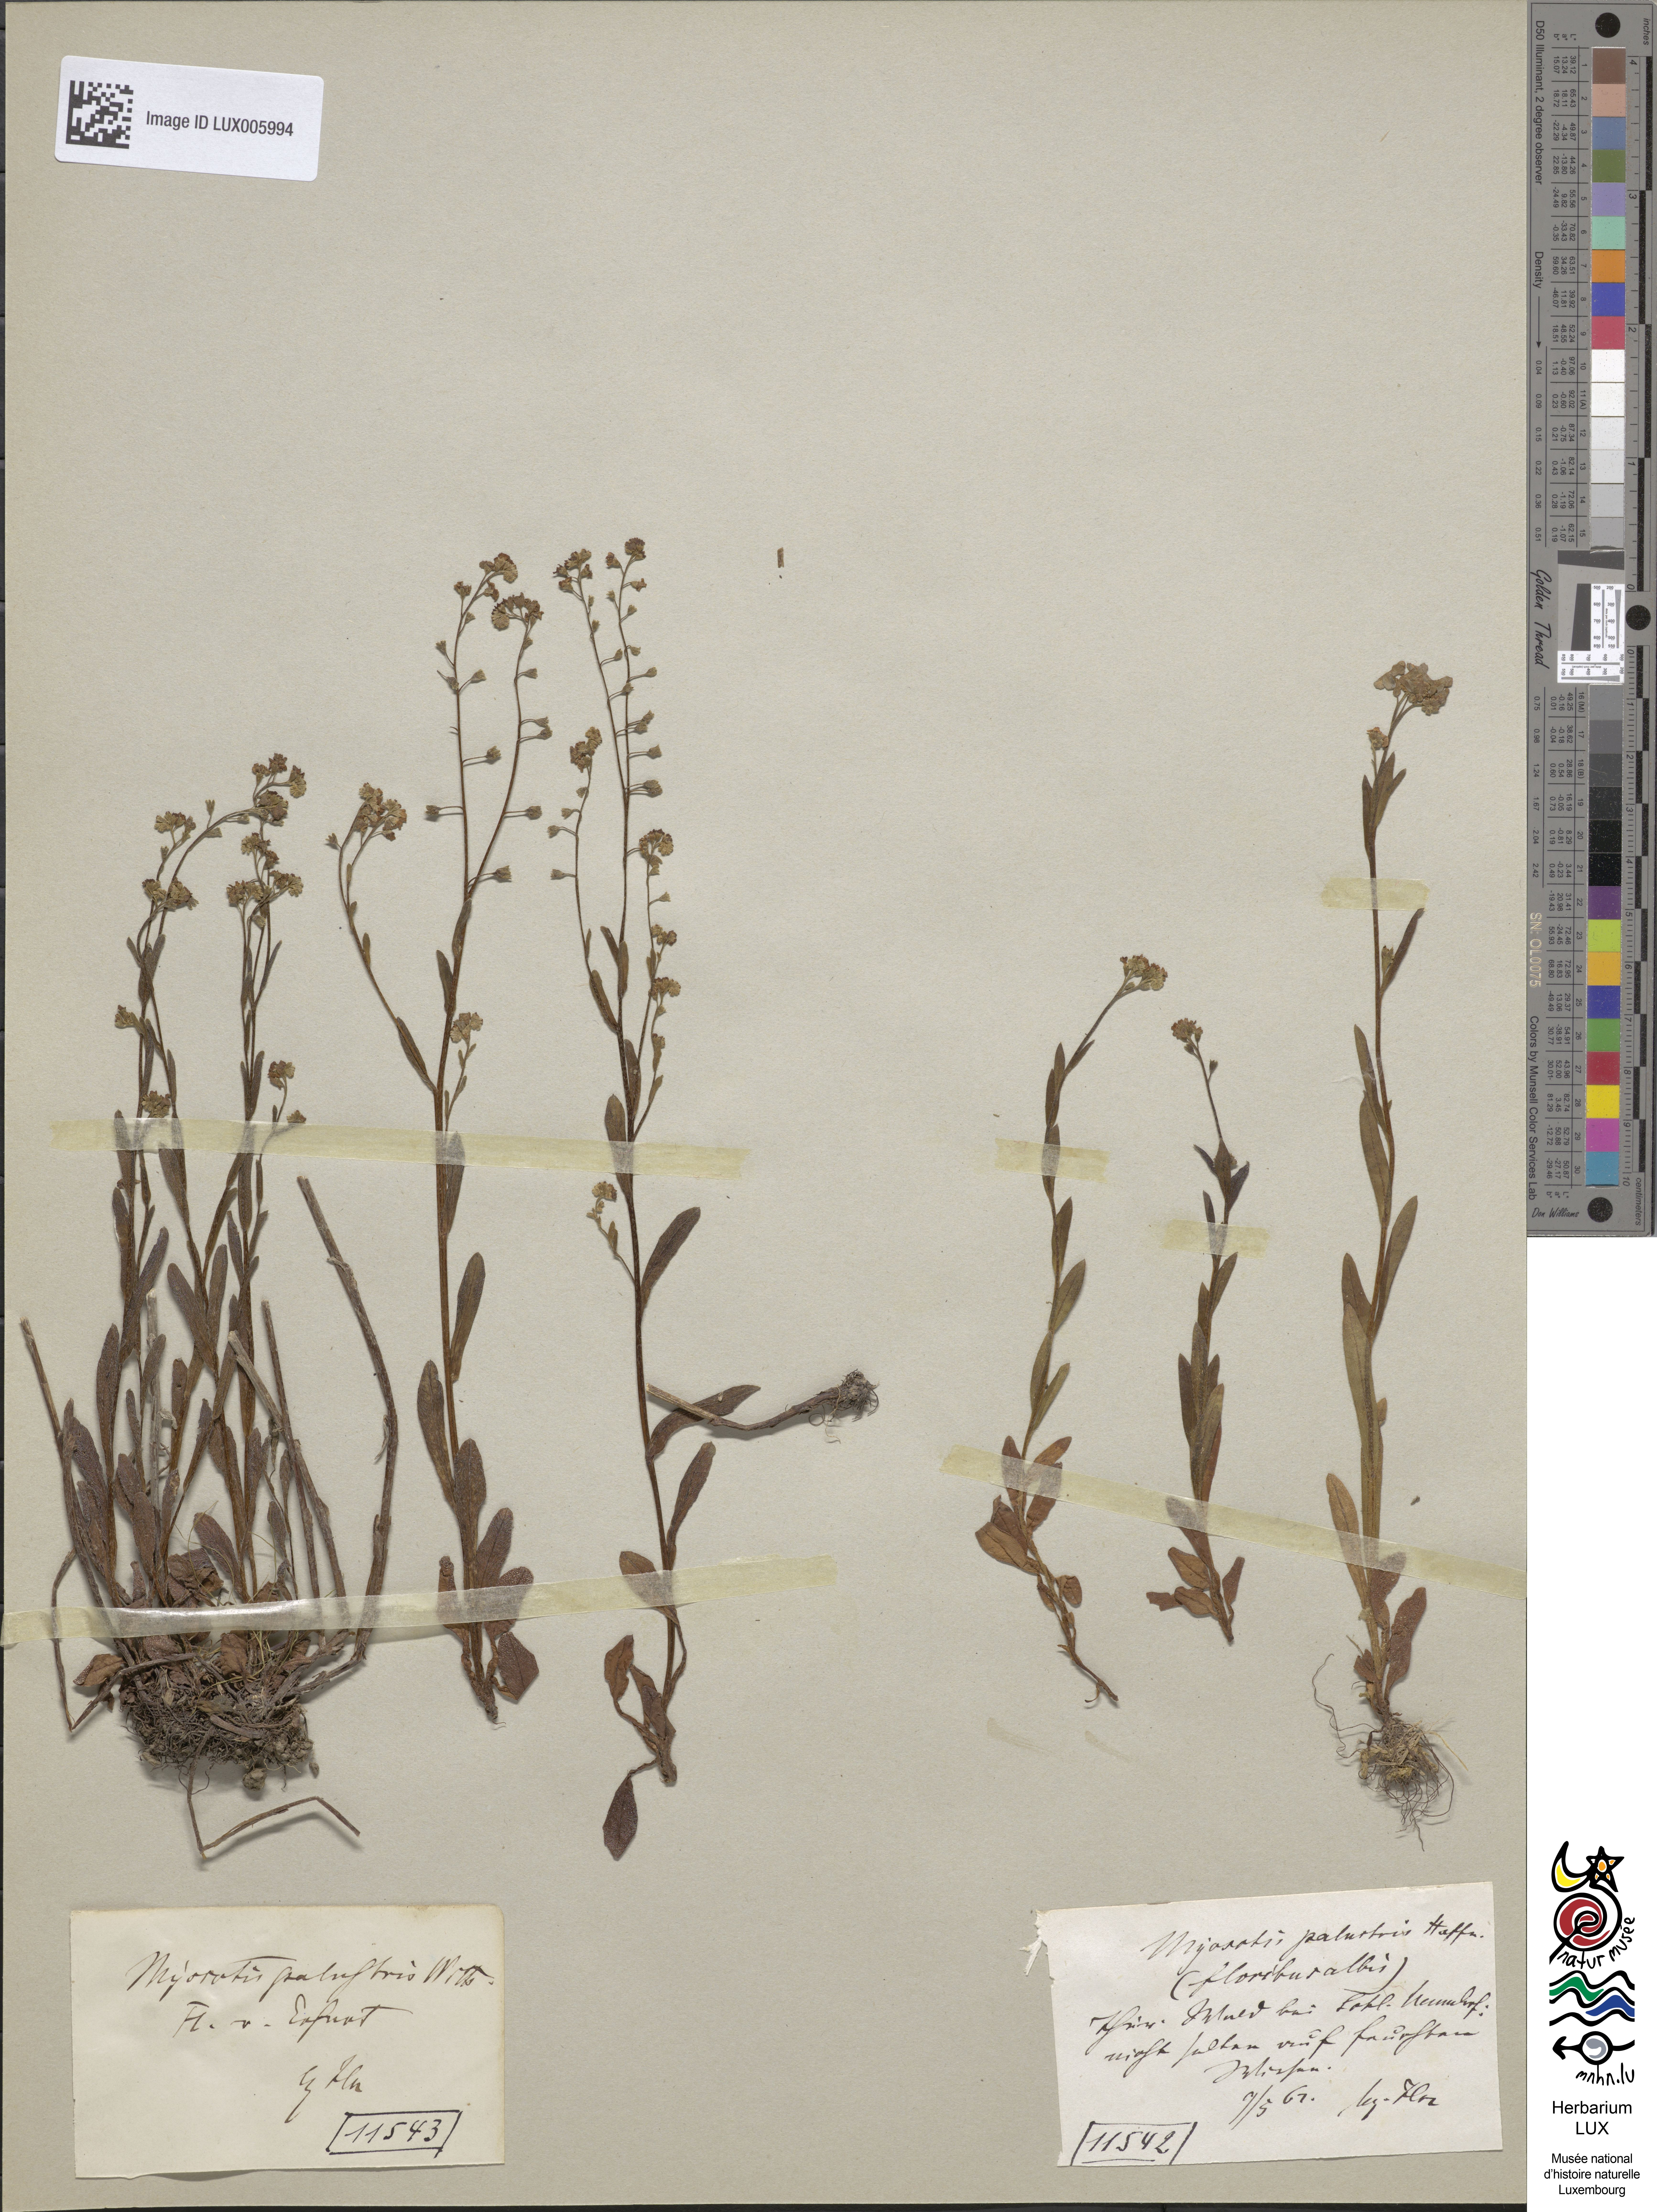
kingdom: Plantae
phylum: Tracheophyta
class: Magnoliopsida
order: Boraginales
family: Boraginaceae
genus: Myosotis
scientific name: Myosotis scorpioides
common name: Water forget-me-not
